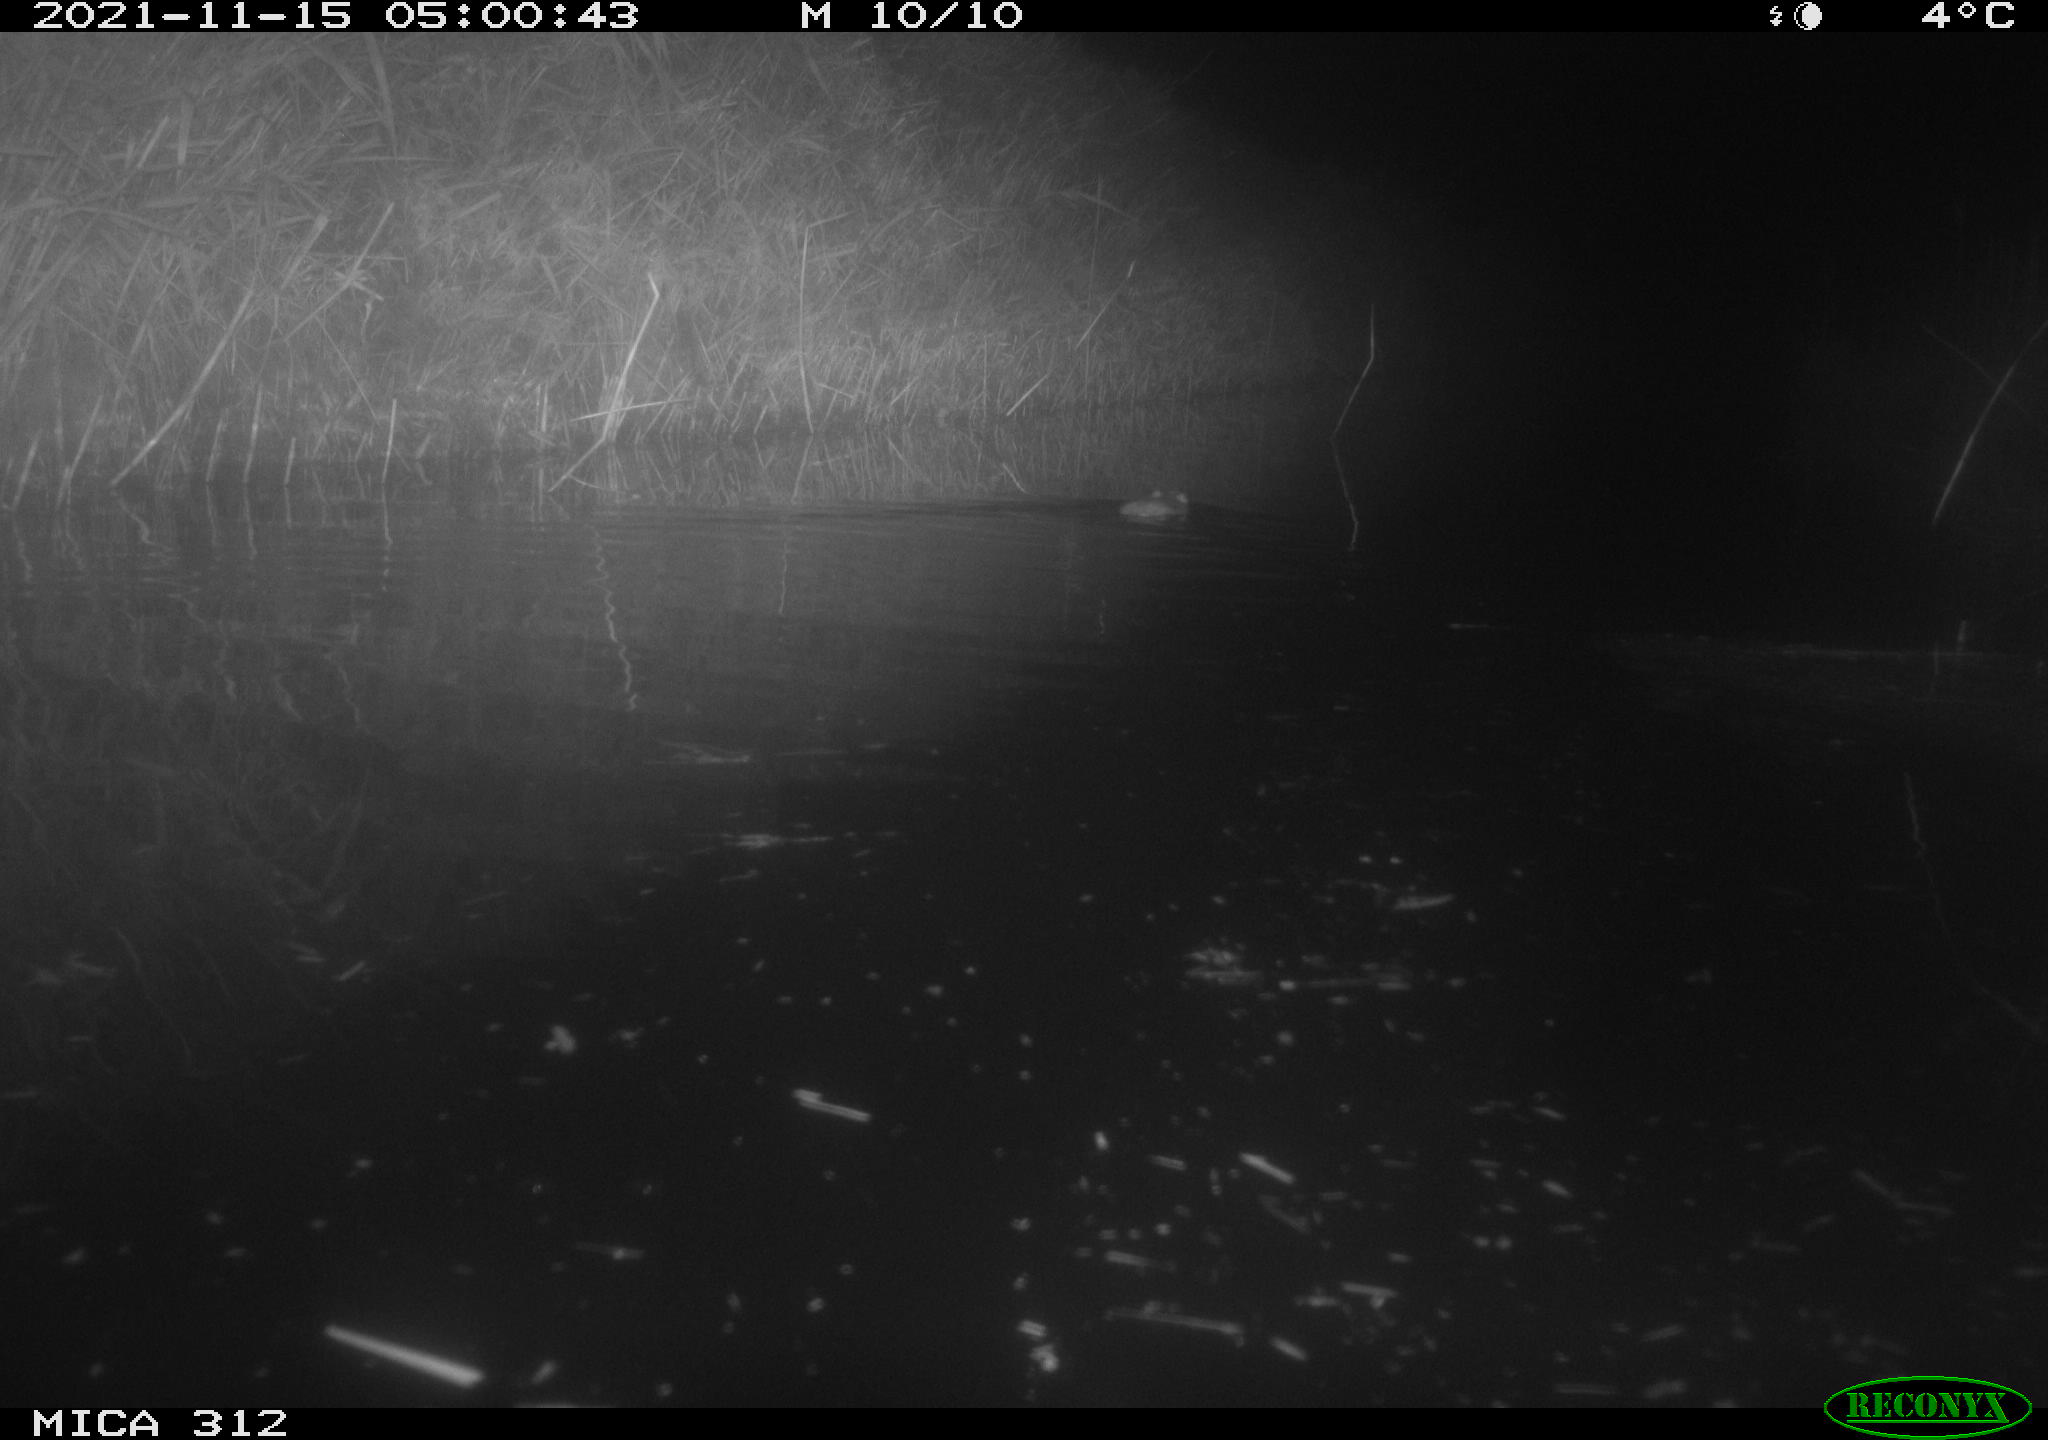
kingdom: Animalia
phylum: Chordata
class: Mammalia
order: Rodentia
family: Muridae
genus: Rattus
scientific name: Rattus norvegicus
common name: Brown rat
